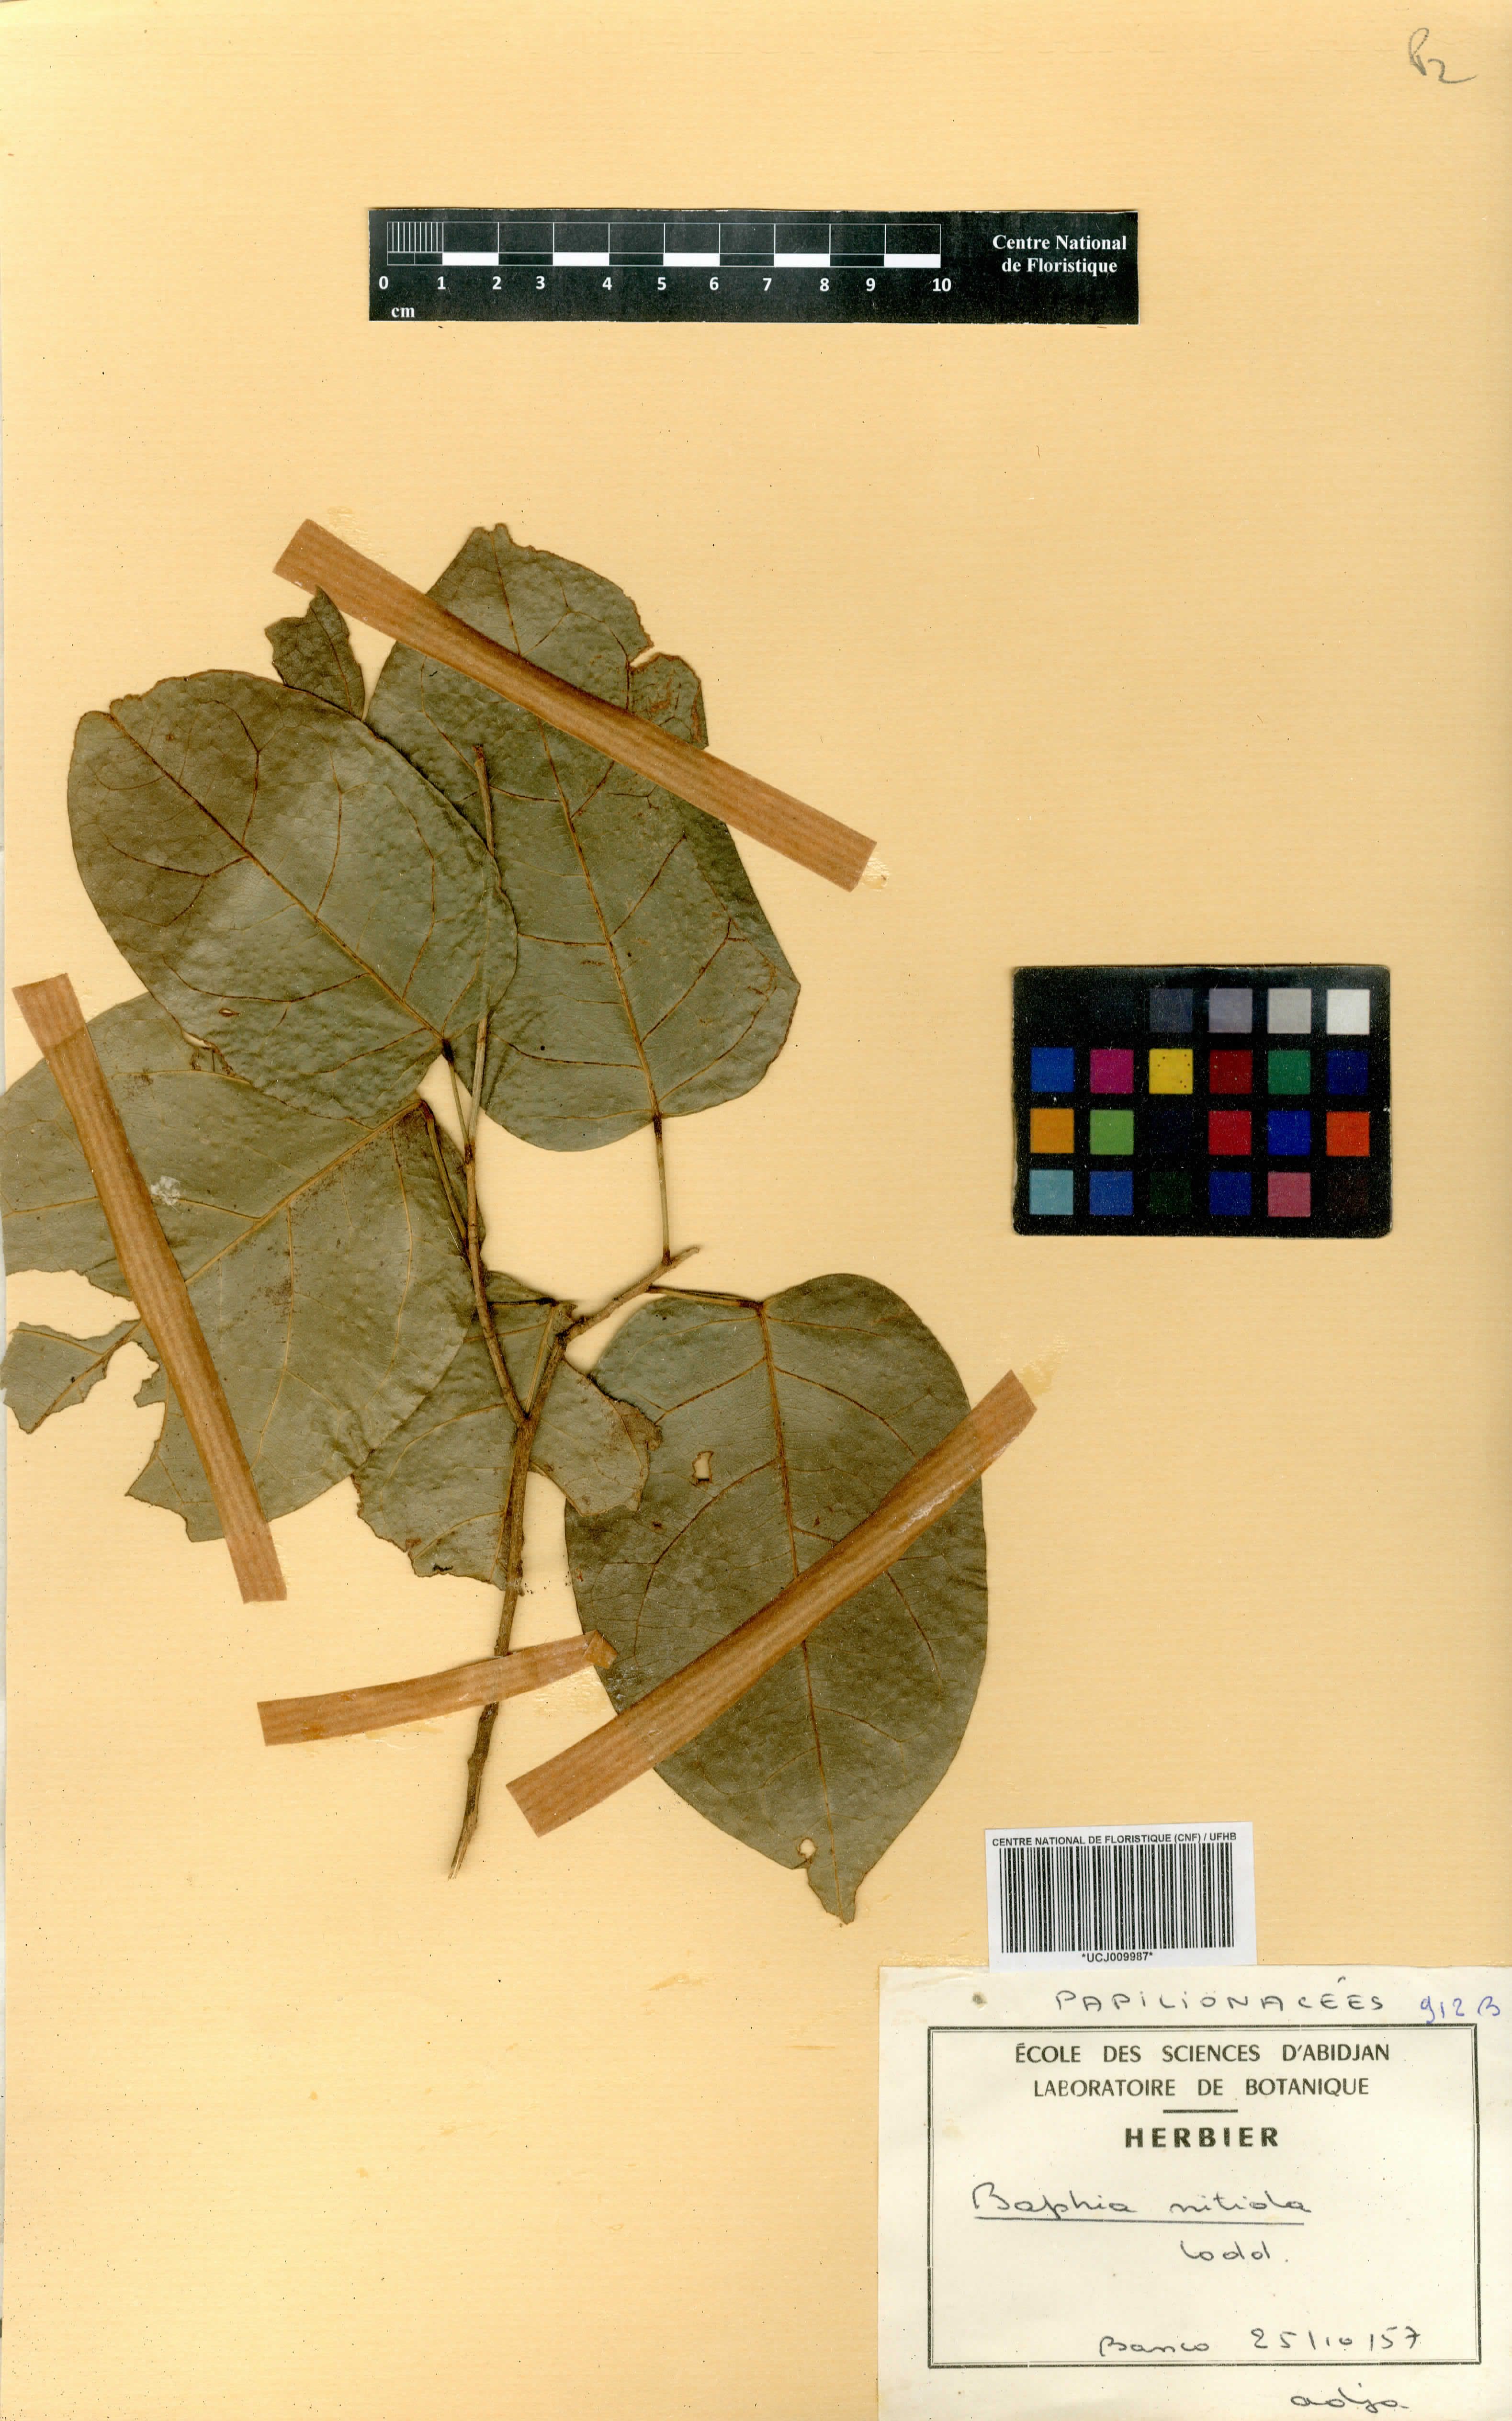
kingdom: Plantae
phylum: Tracheophyta
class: Magnoliopsida
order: Fabales
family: Fabaceae
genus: Baphia
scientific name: Baphia nitida
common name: Camwood
